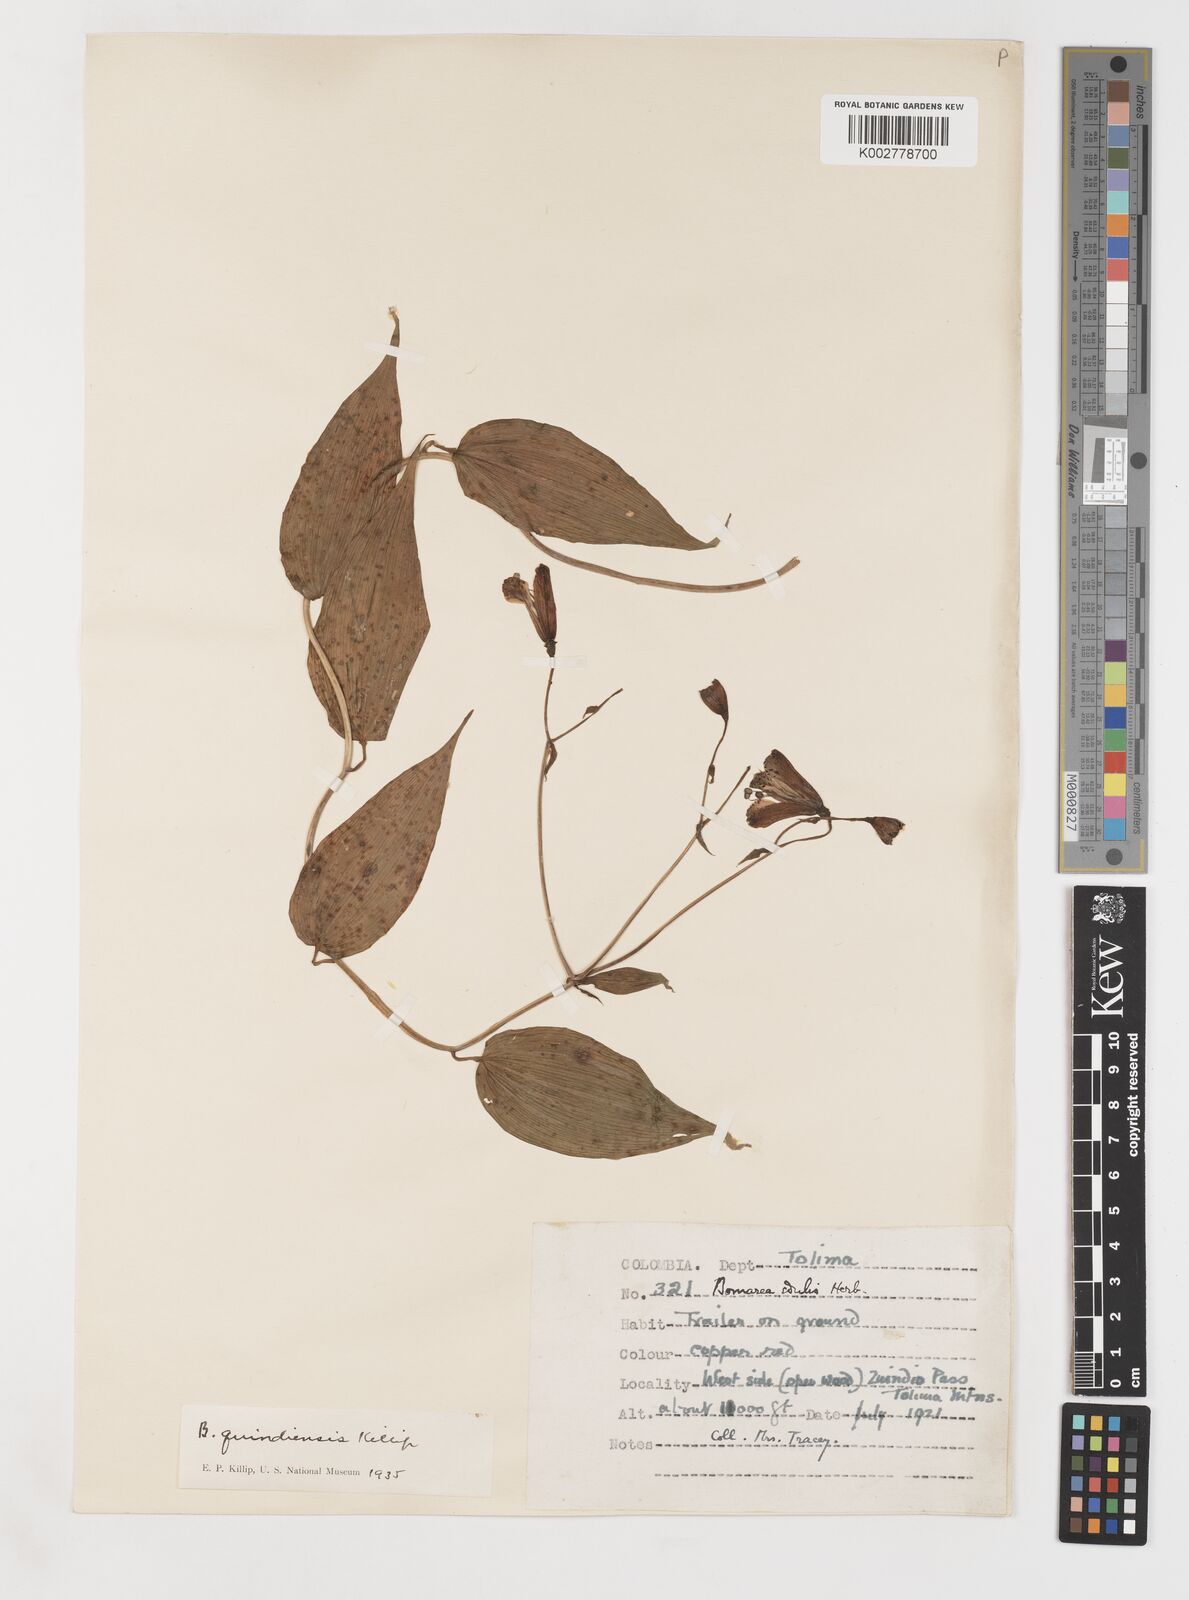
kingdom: Plantae
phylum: Tracheophyta
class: Liliopsida
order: Liliales
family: Alstroemeriaceae
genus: Bomarea
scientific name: Bomarea edulis
